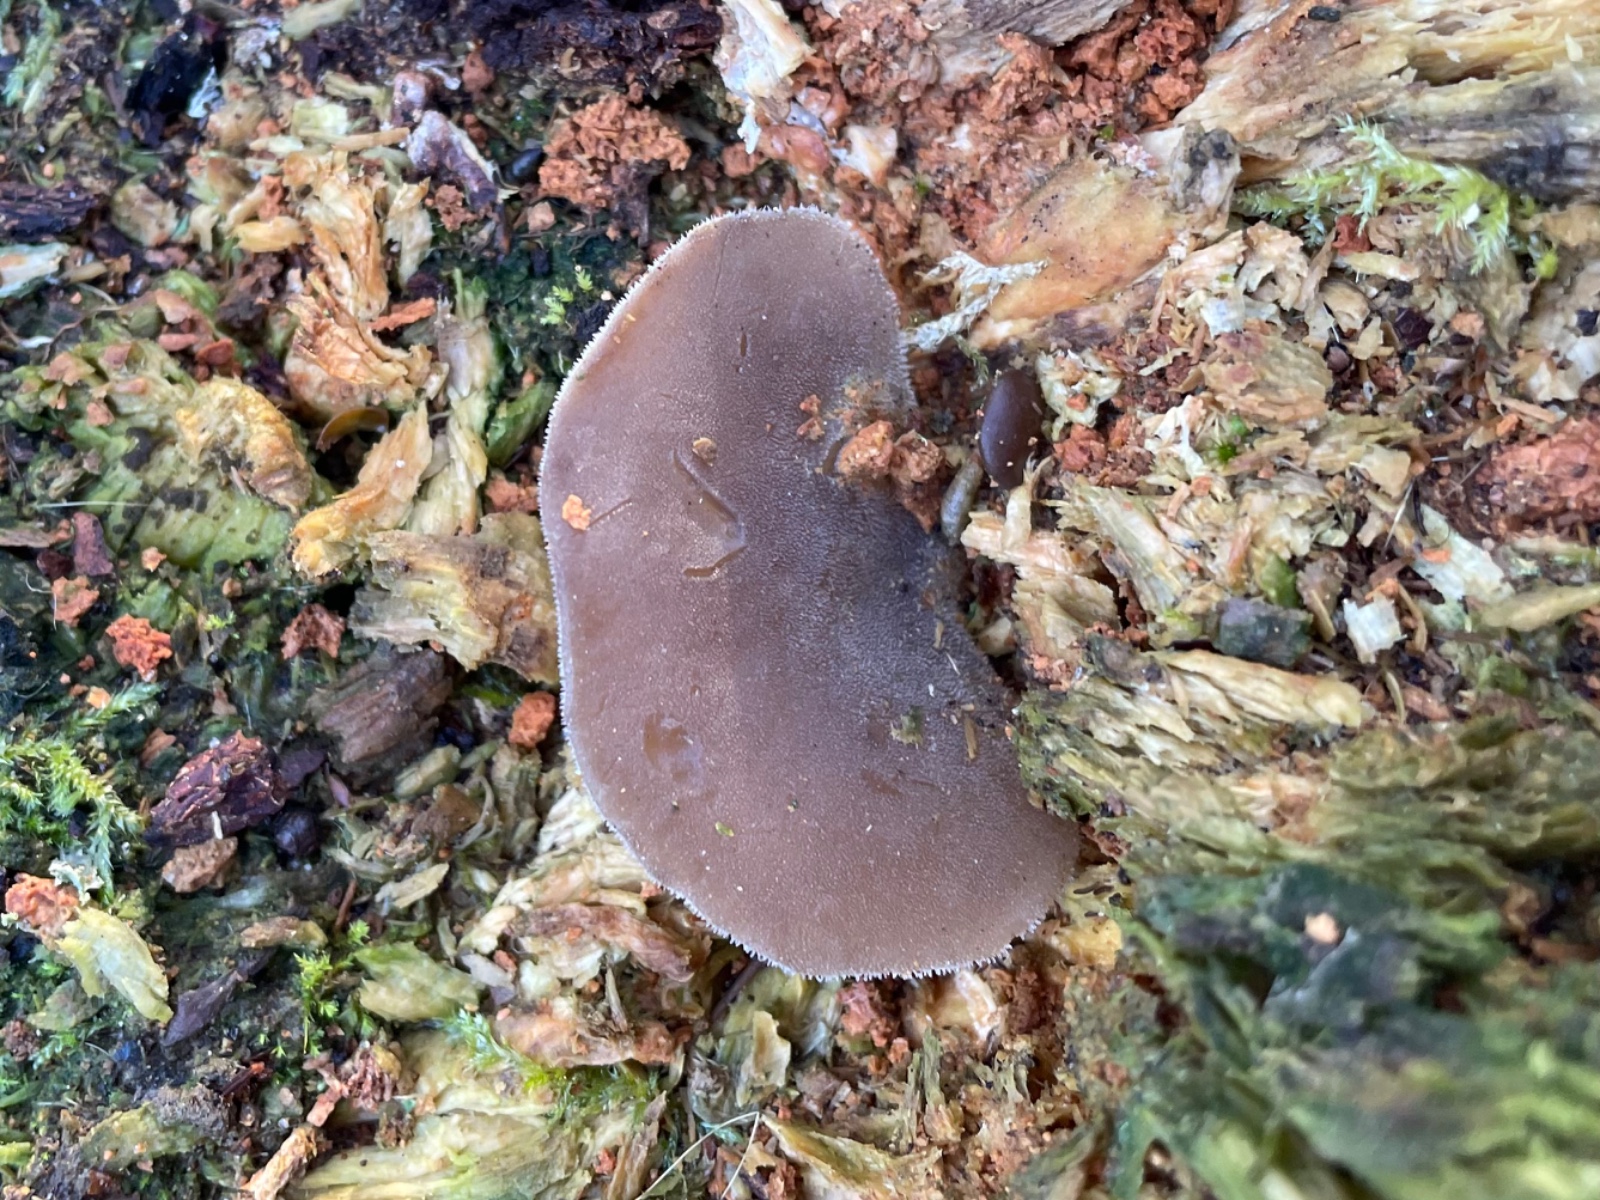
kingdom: Fungi
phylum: Basidiomycota
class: Agaricomycetes
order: Auriculariales
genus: Pseudohydnum
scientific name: Pseudohydnum gelatinosum
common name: bævretand
